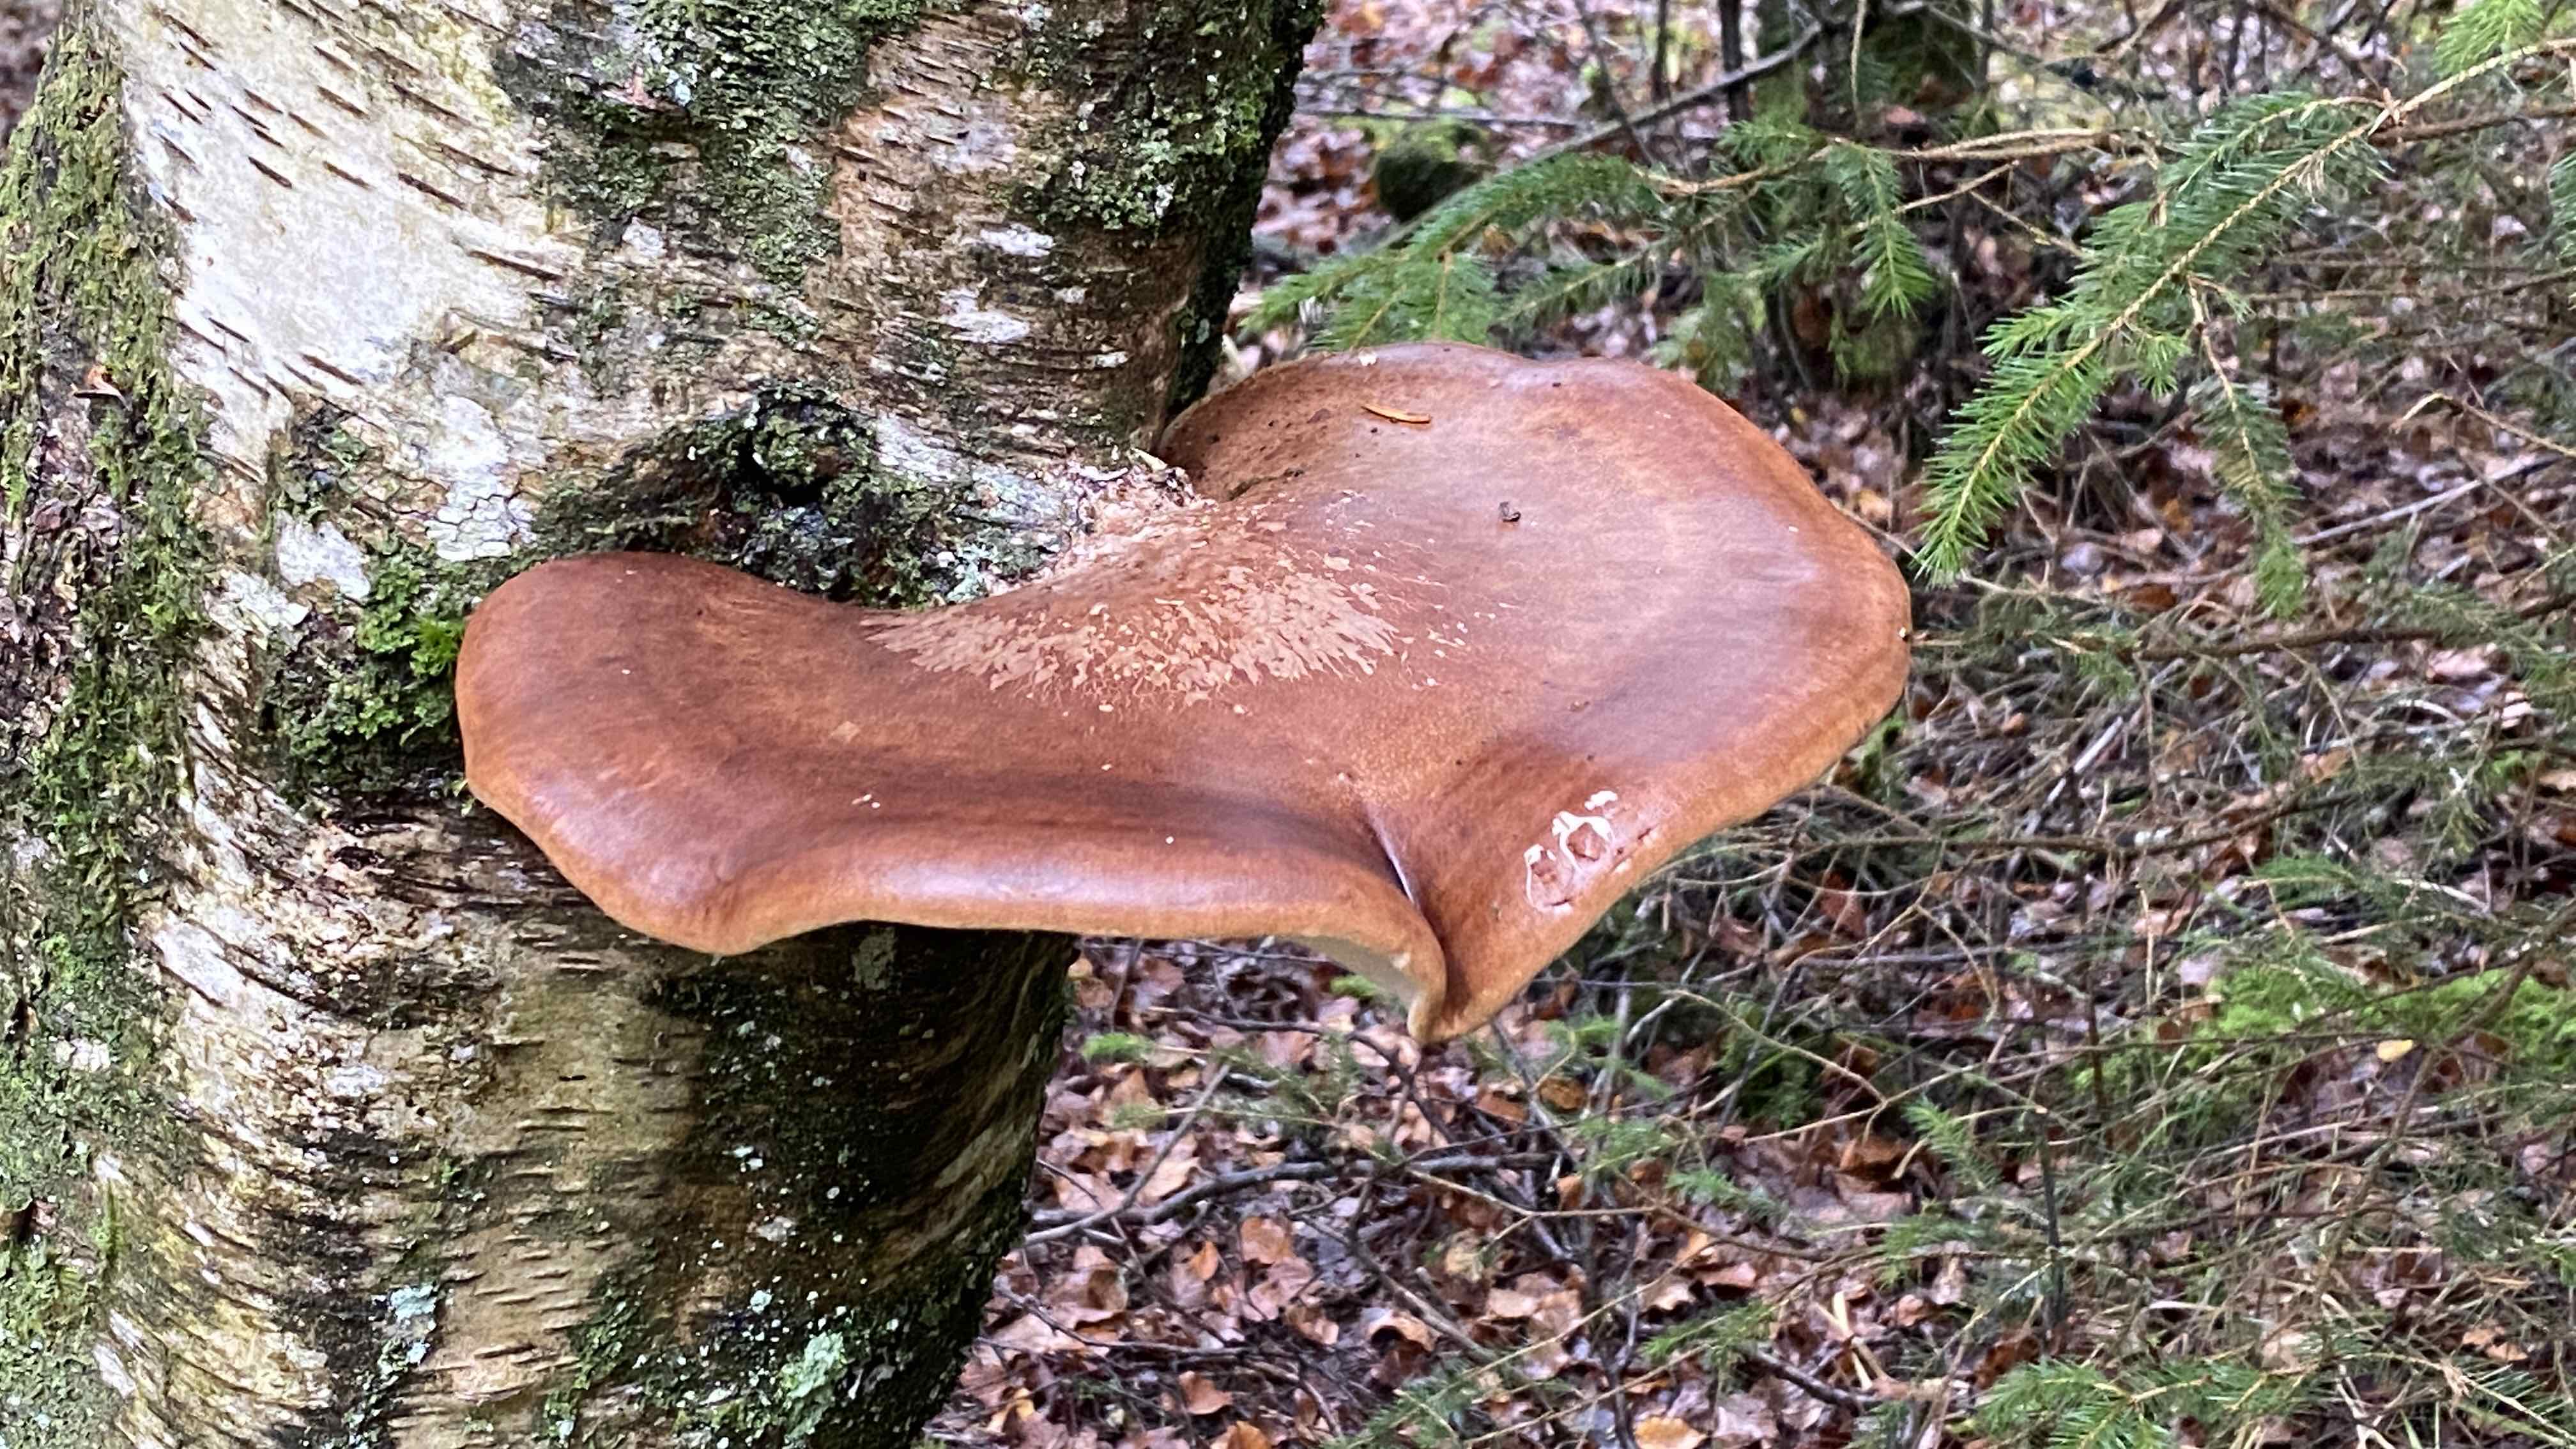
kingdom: Fungi
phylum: Basidiomycota
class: Agaricomycetes
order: Polyporales
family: Fomitopsidaceae
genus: Fomitopsis
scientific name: Fomitopsis betulina
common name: birkeporesvamp
